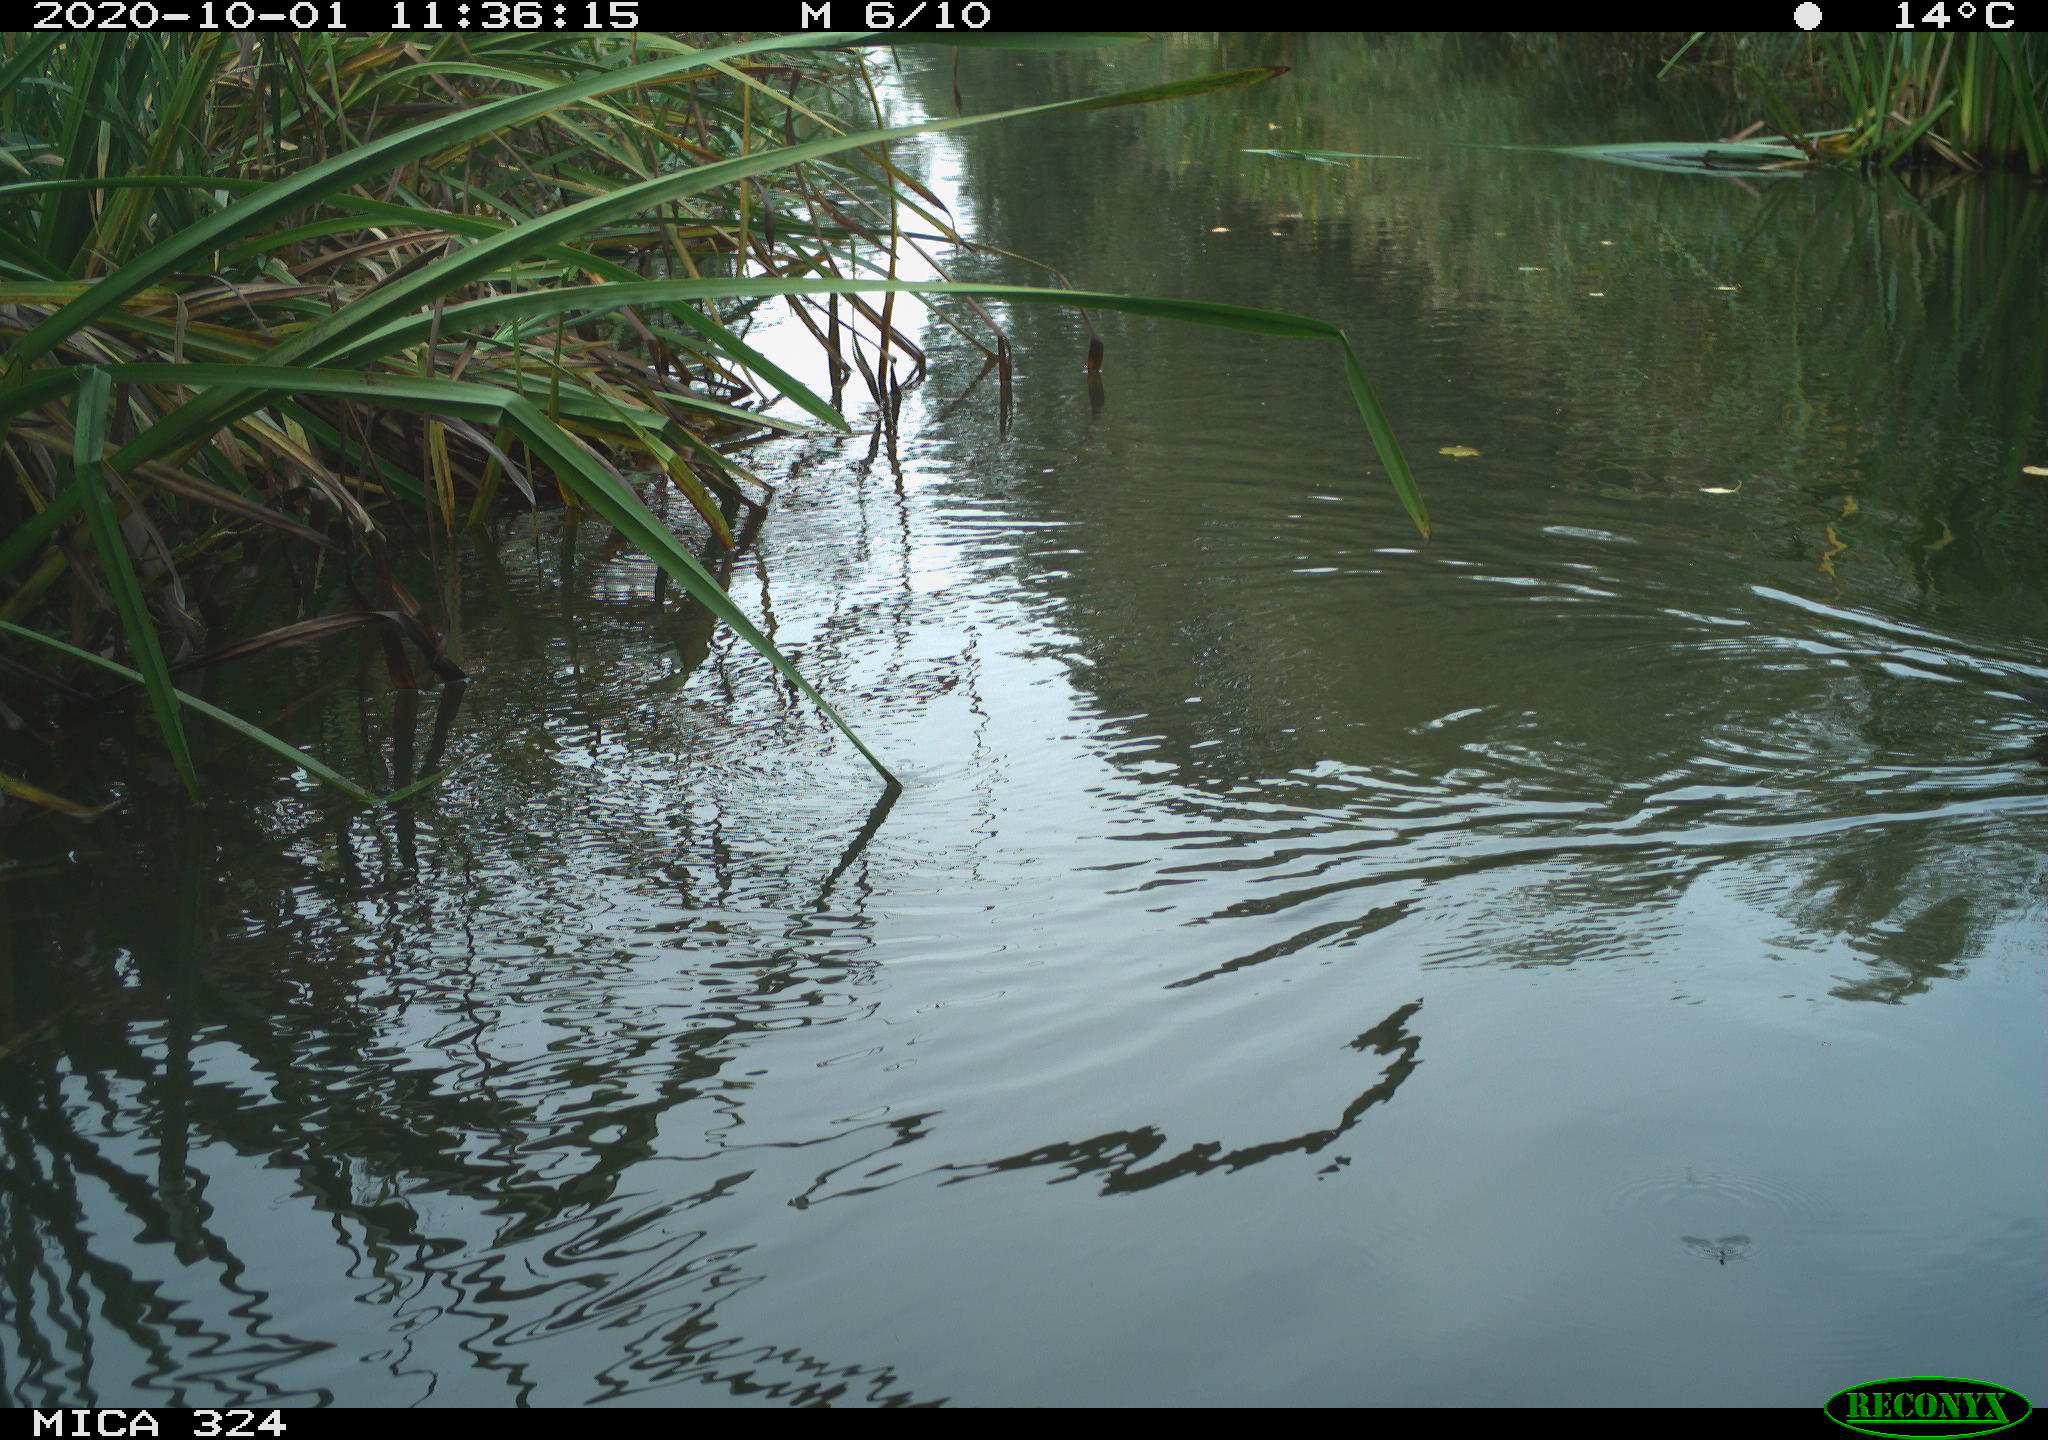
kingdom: Animalia
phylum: Chordata
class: Aves
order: Gruiformes
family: Rallidae
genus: Gallinula
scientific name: Gallinula chloropus
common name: Common moorhen
